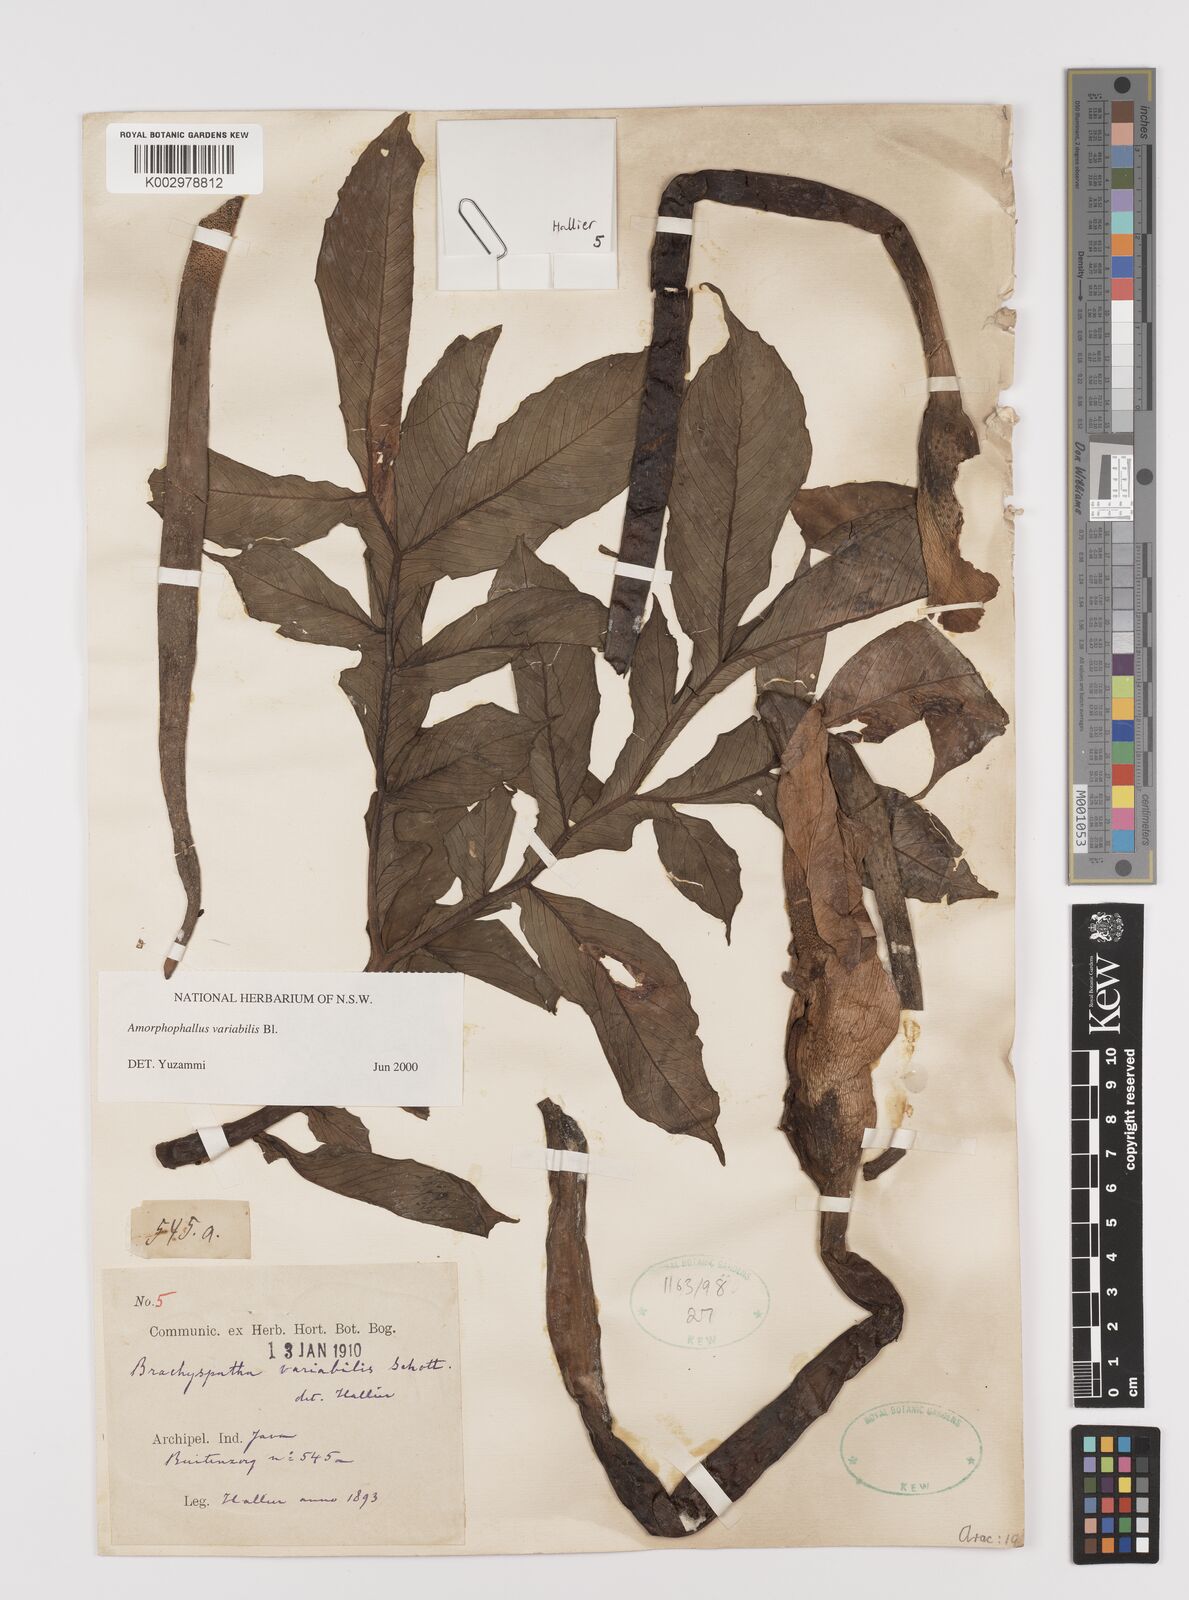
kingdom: Plantae
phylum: Tracheophyta
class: Liliopsida
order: Alismatales
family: Araceae
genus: Amorphophallus
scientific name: Amorphophallus variabilis
